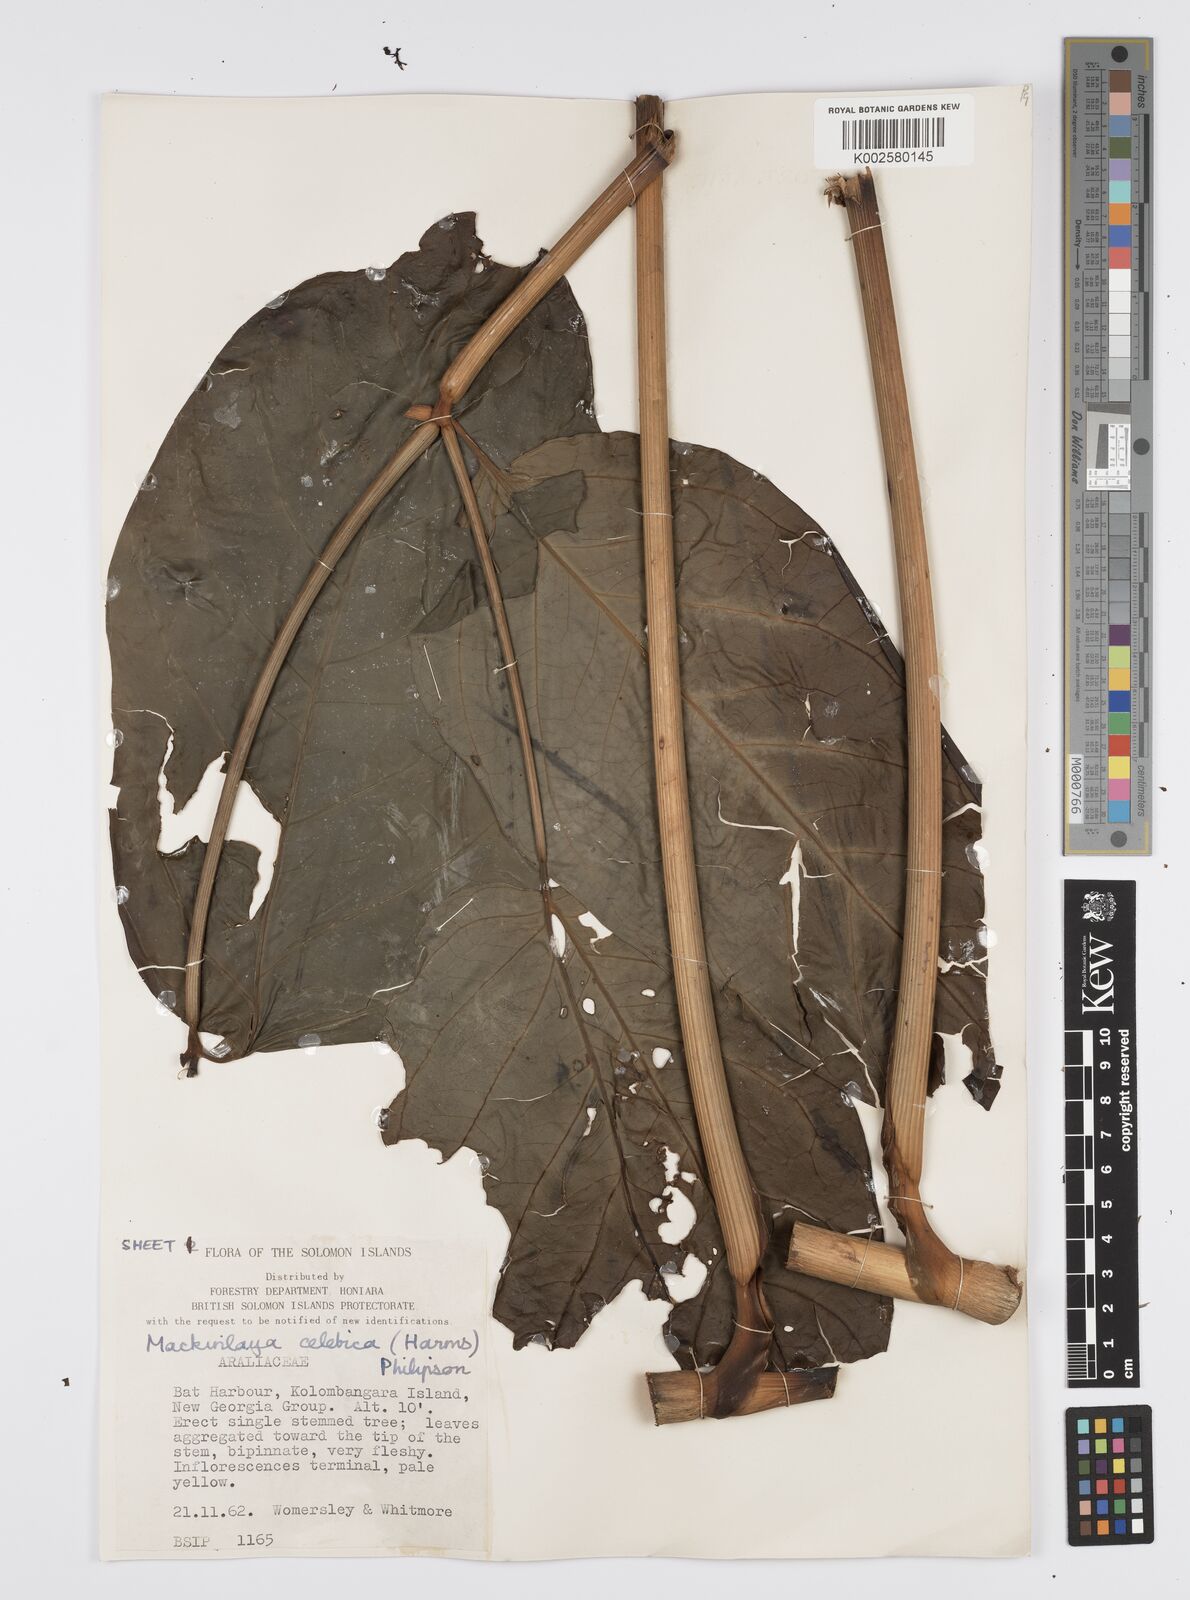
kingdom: Plantae
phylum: Tracheophyta
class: Magnoliopsida
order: Apiales
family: Apiaceae
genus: Mackinlaya
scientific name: Mackinlaya celebica
